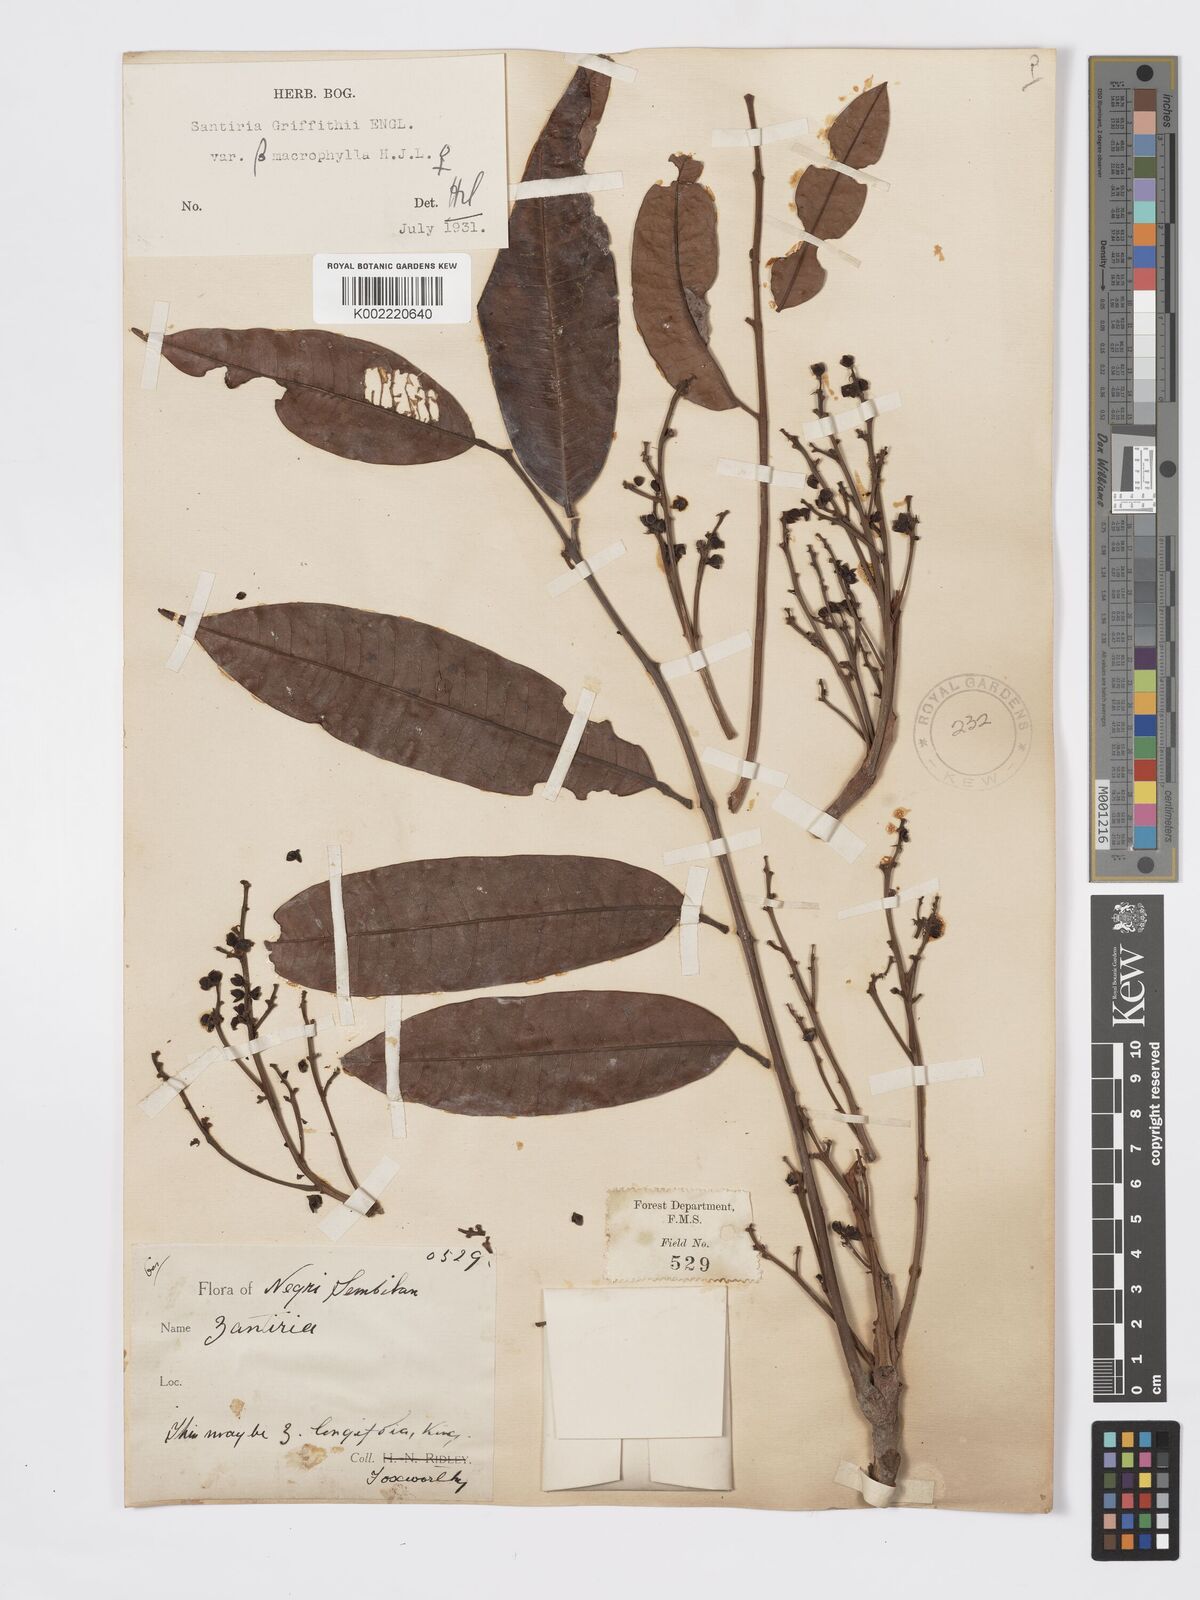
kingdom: Plantae
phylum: Tracheophyta
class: Magnoliopsida
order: Sapindales
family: Burseraceae
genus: Santiria
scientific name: Santiria griffithii
